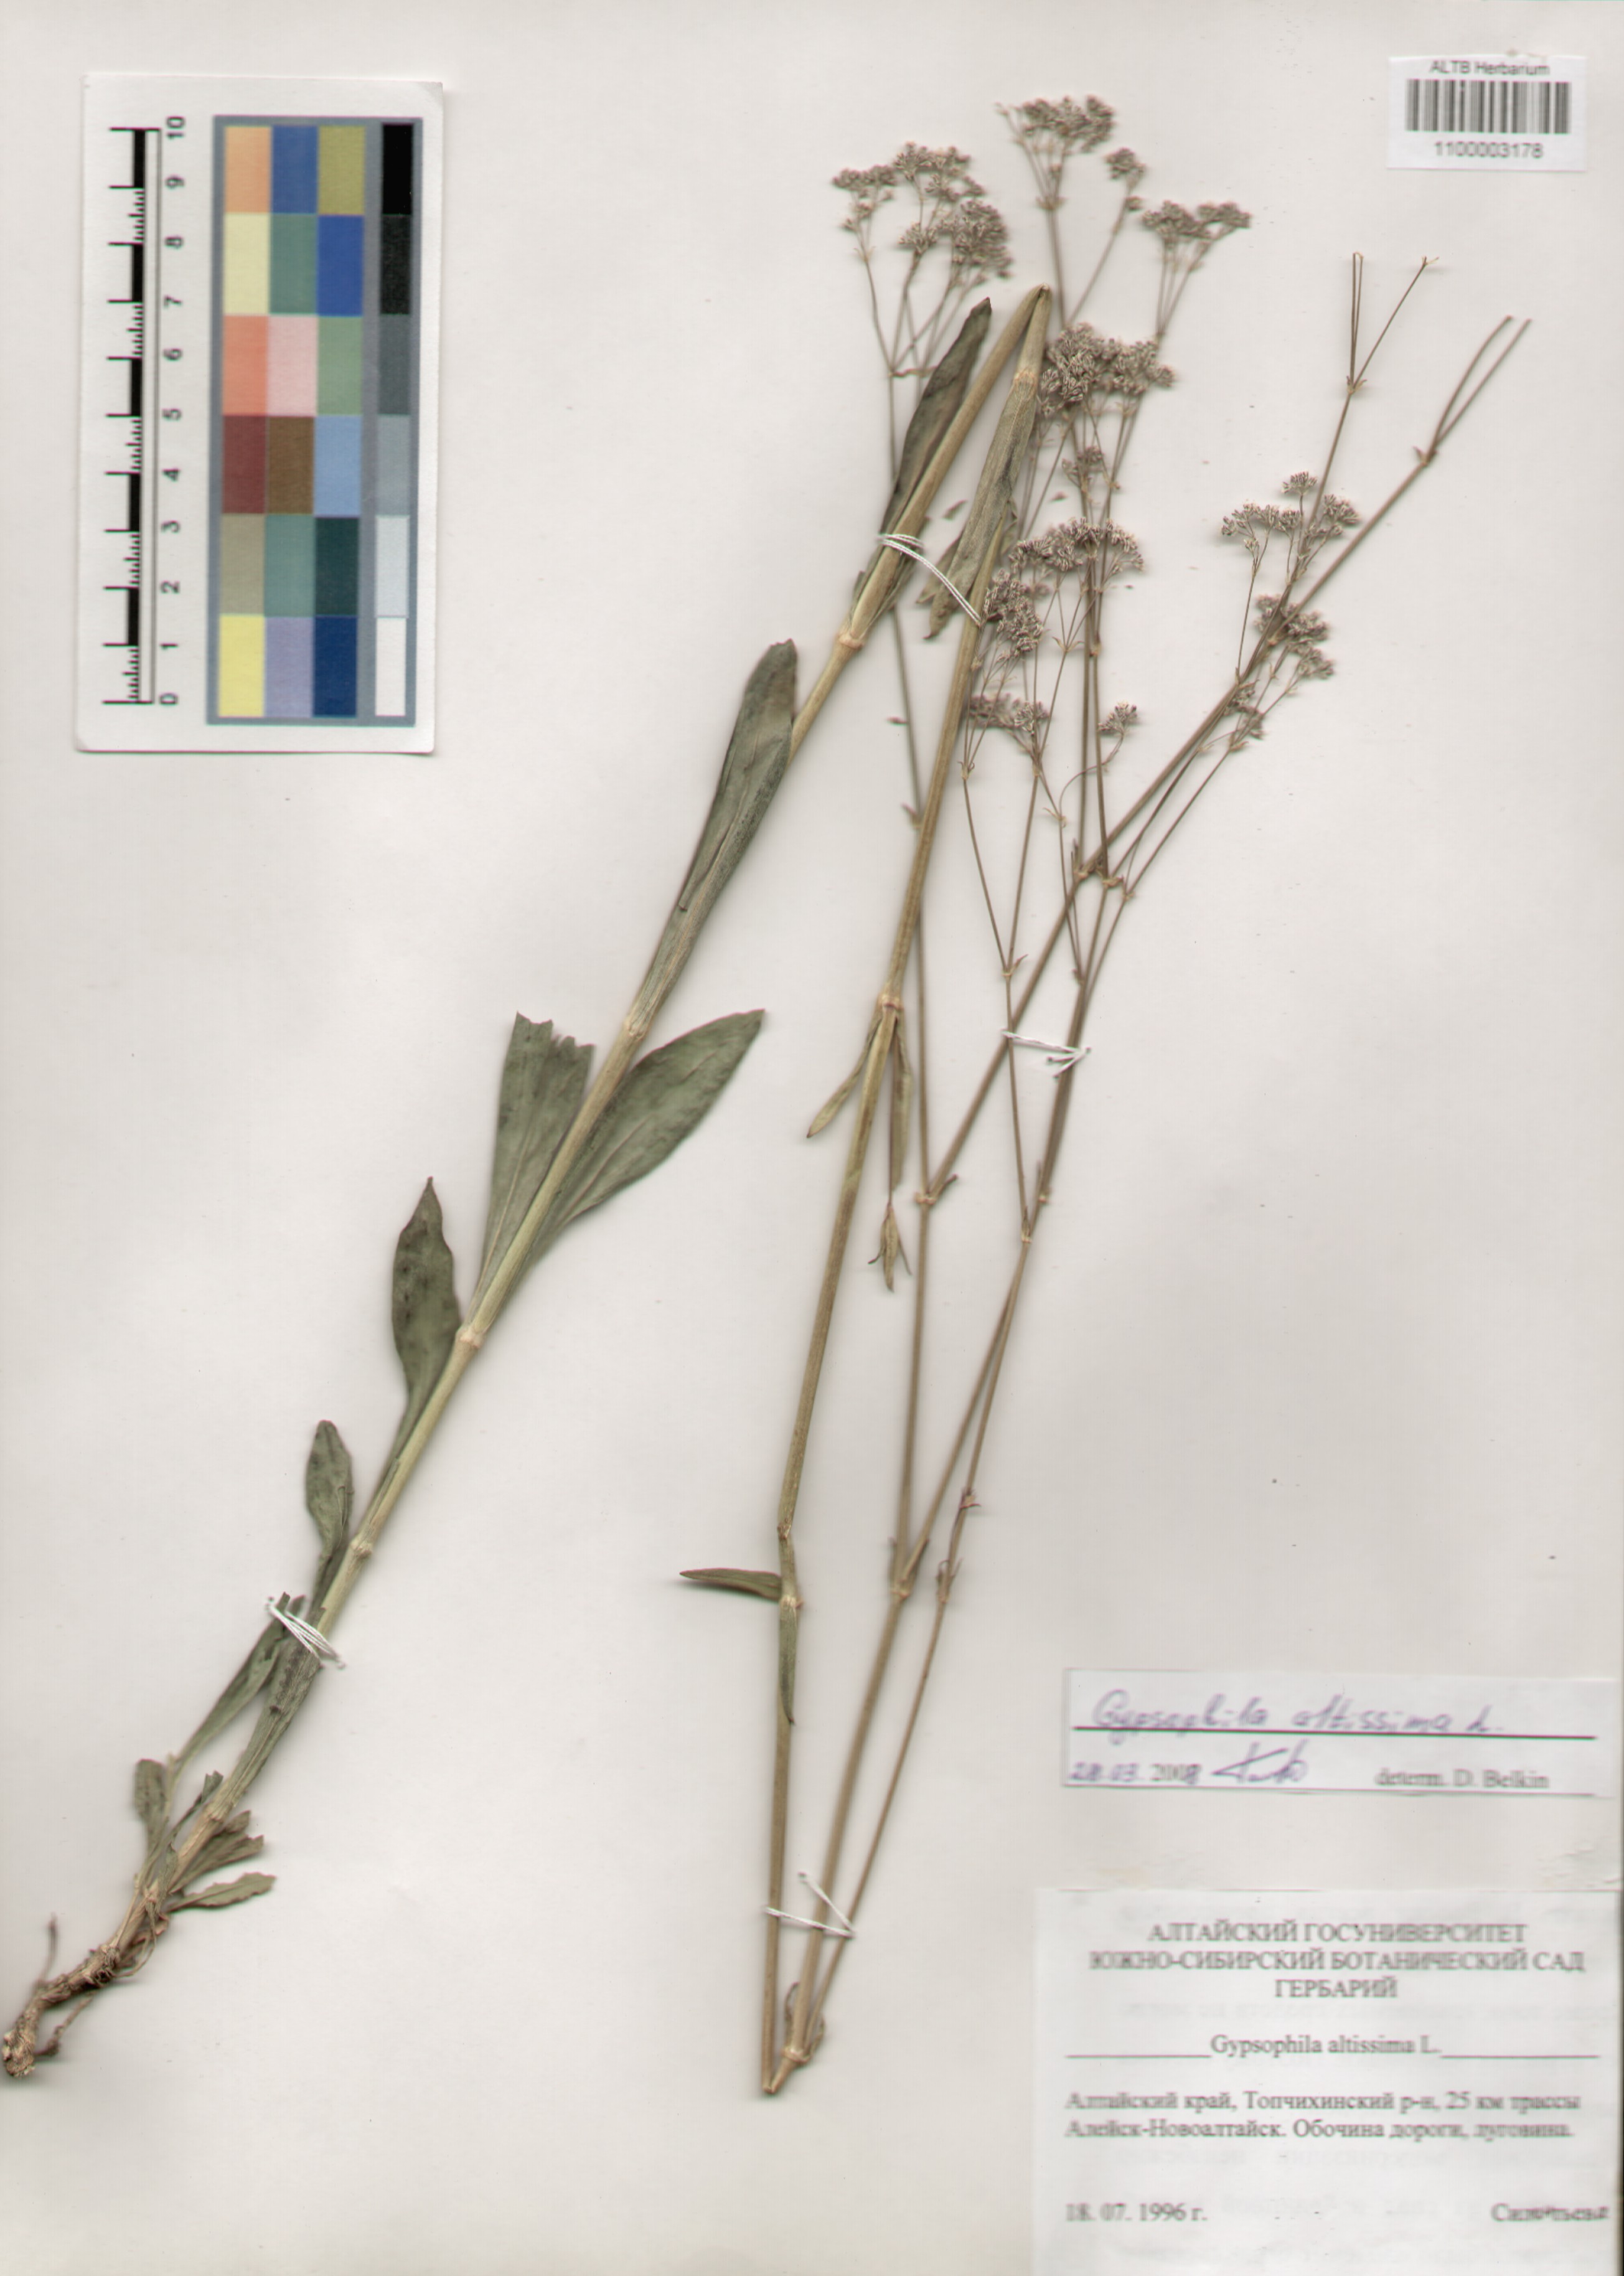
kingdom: Plantae
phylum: Tracheophyta
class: Magnoliopsida
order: Caryophyllales
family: Caryophyllaceae
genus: Gypsophila
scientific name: Gypsophila altissima
